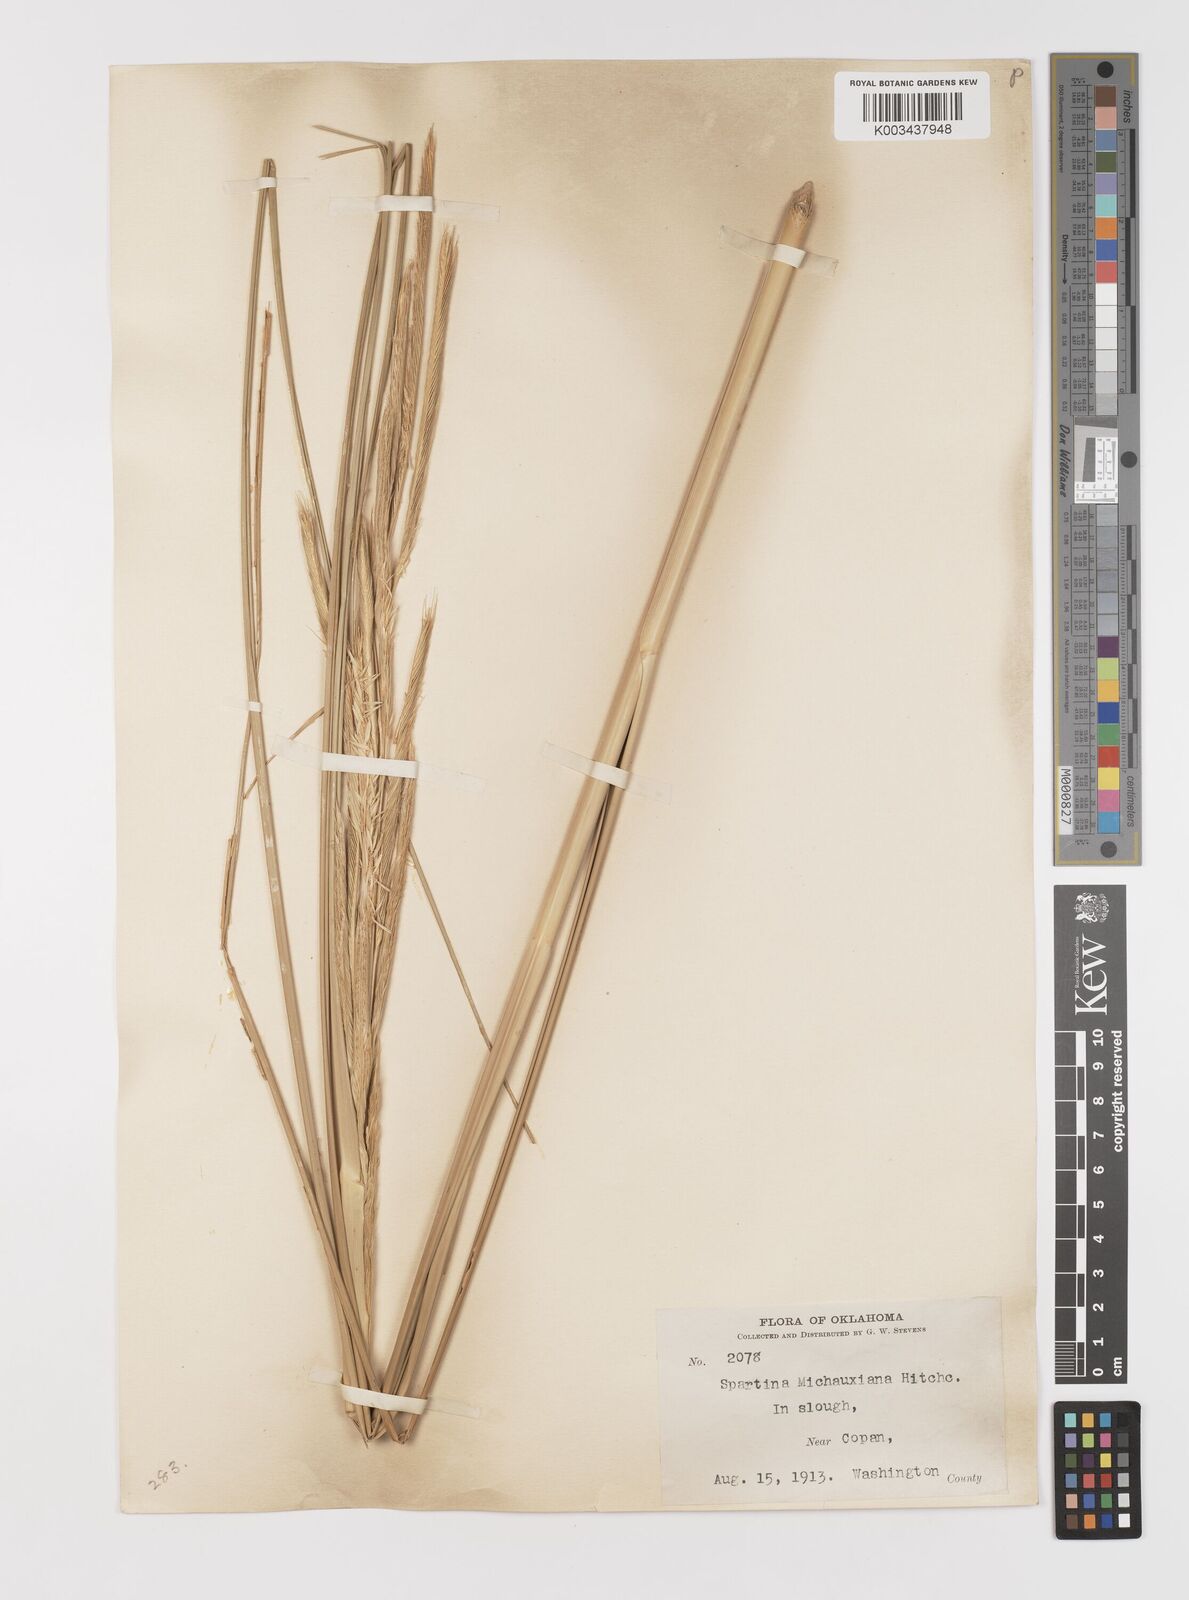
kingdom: Plantae
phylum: Tracheophyta
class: Liliopsida
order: Poales
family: Poaceae
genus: Sporobolus
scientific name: Sporobolus michauxianus
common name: Freshwater cordgrass
